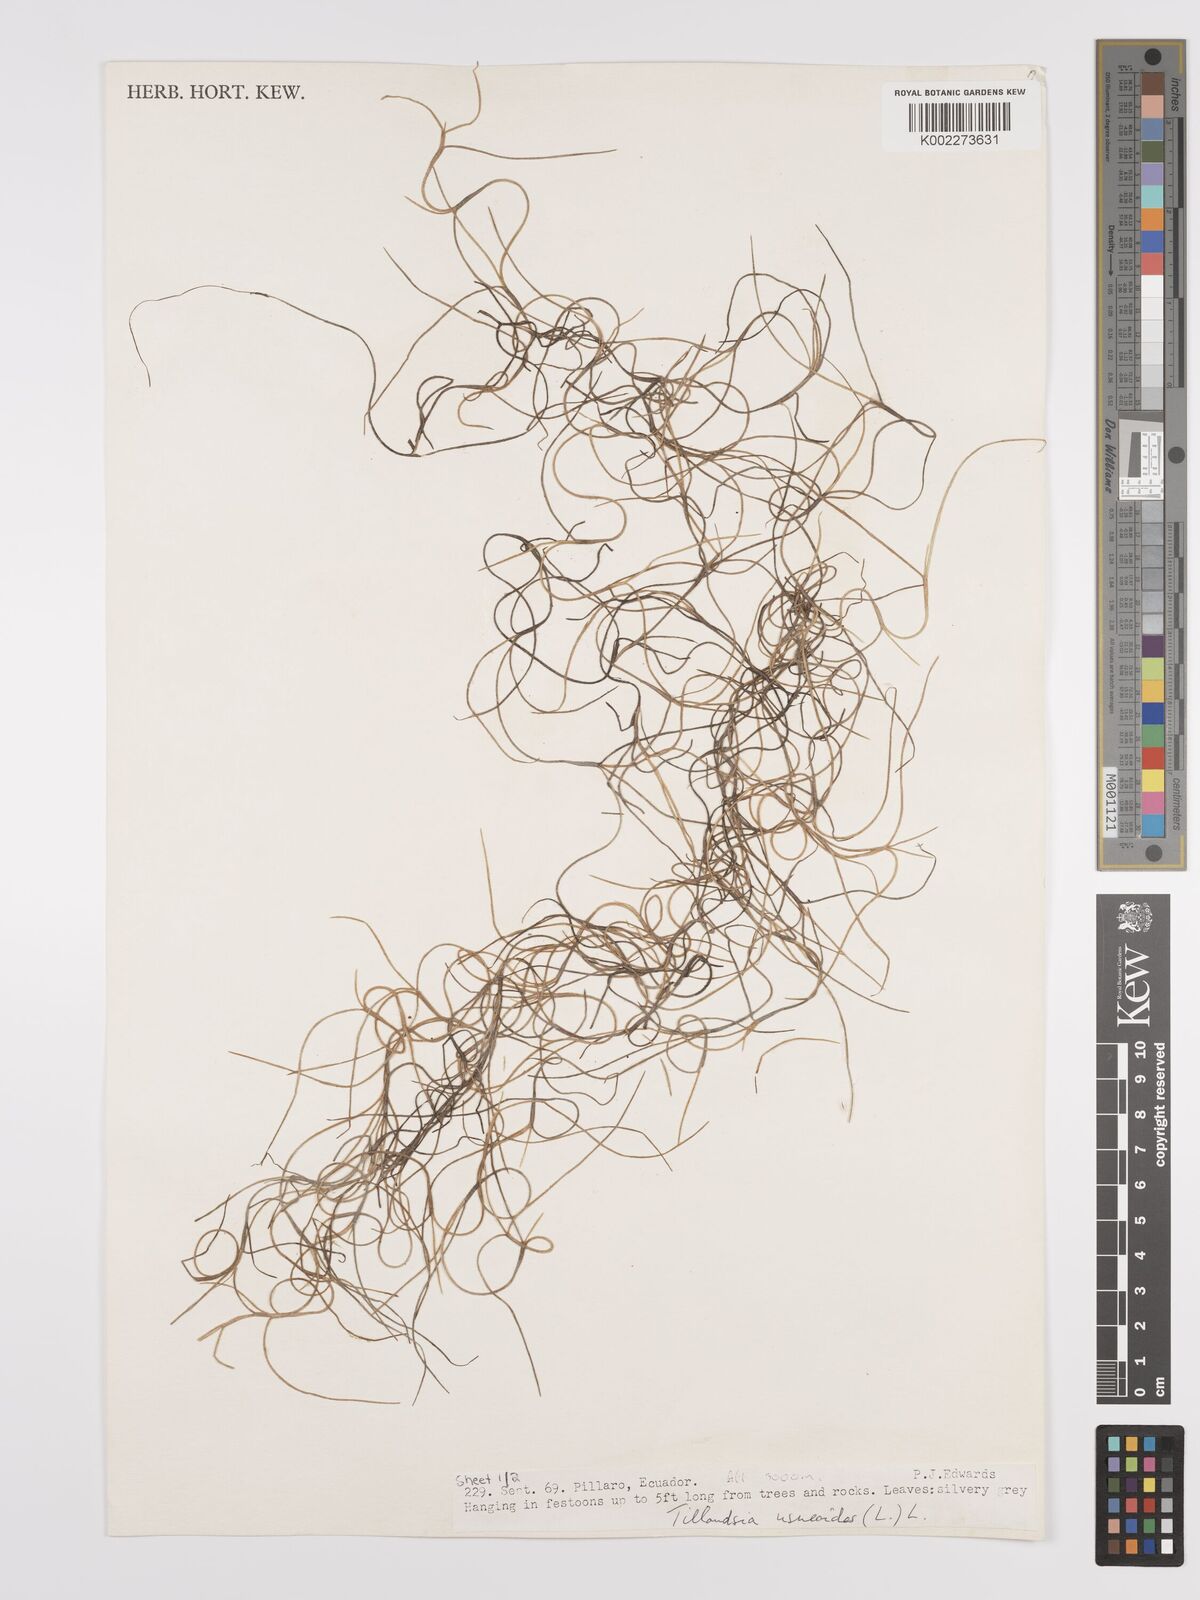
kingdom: Plantae
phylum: Tracheophyta
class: Liliopsida
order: Poales
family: Bromeliaceae
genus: Tillandsia
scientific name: Tillandsia usneoides
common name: Spanish moss
